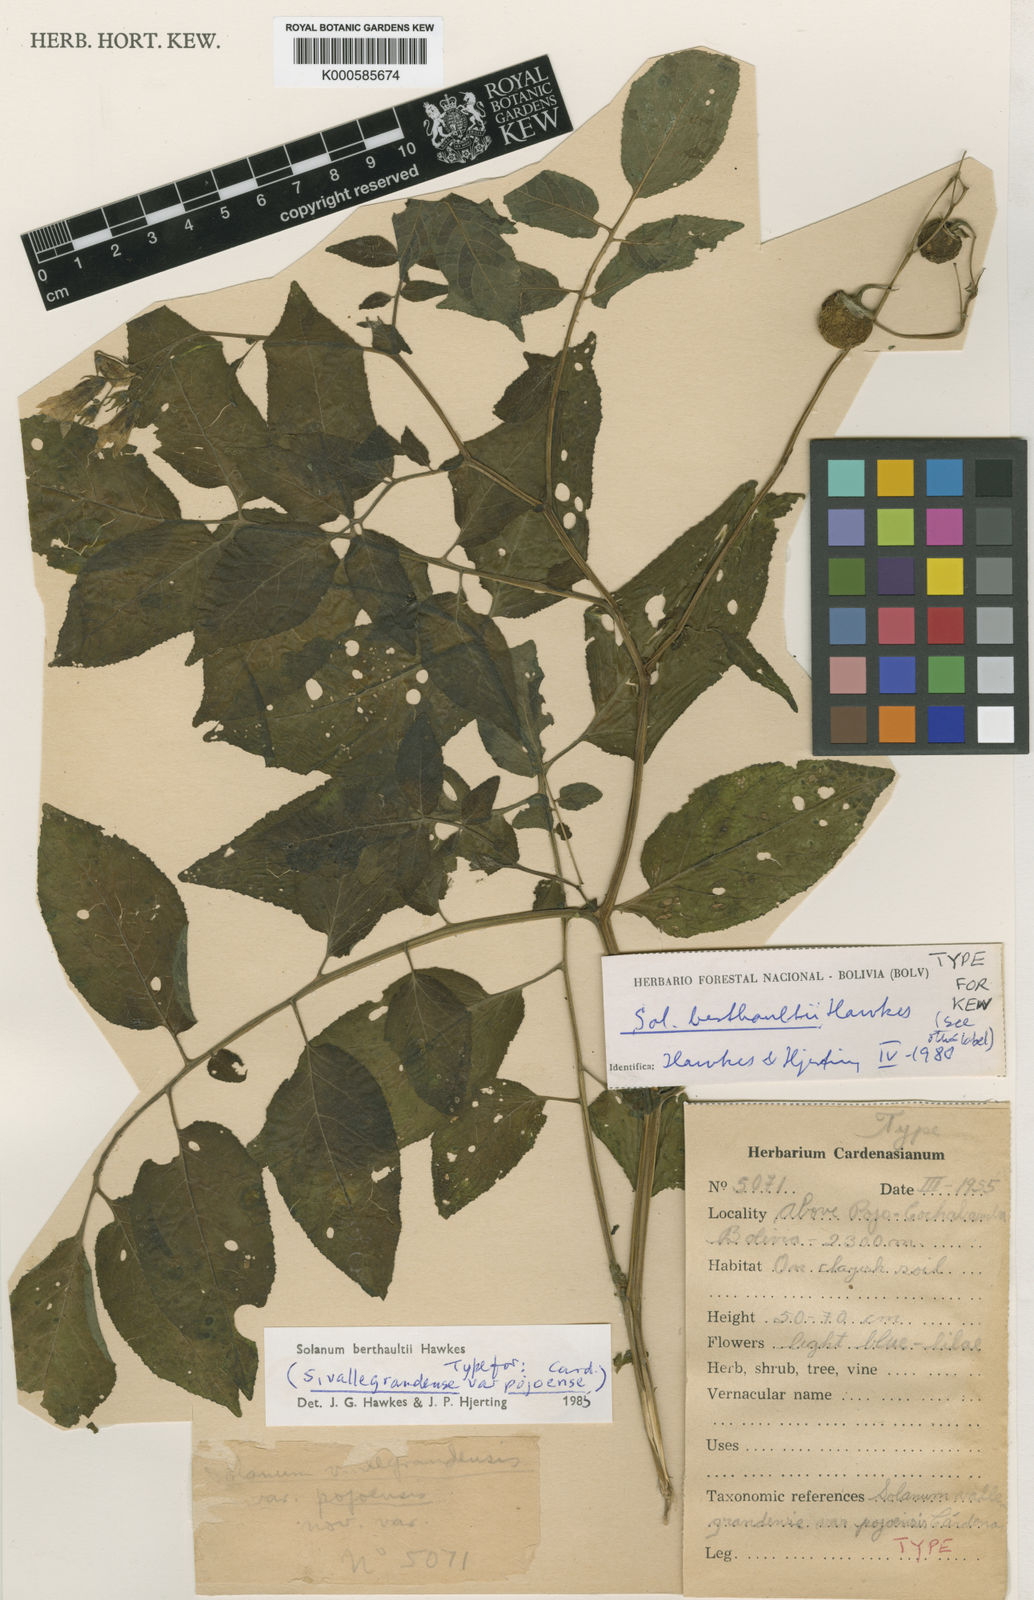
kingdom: Plantae
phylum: Tracheophyta
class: Magnoliopsida
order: Solanales
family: Solanaceae
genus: Solanum
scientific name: Solanum
